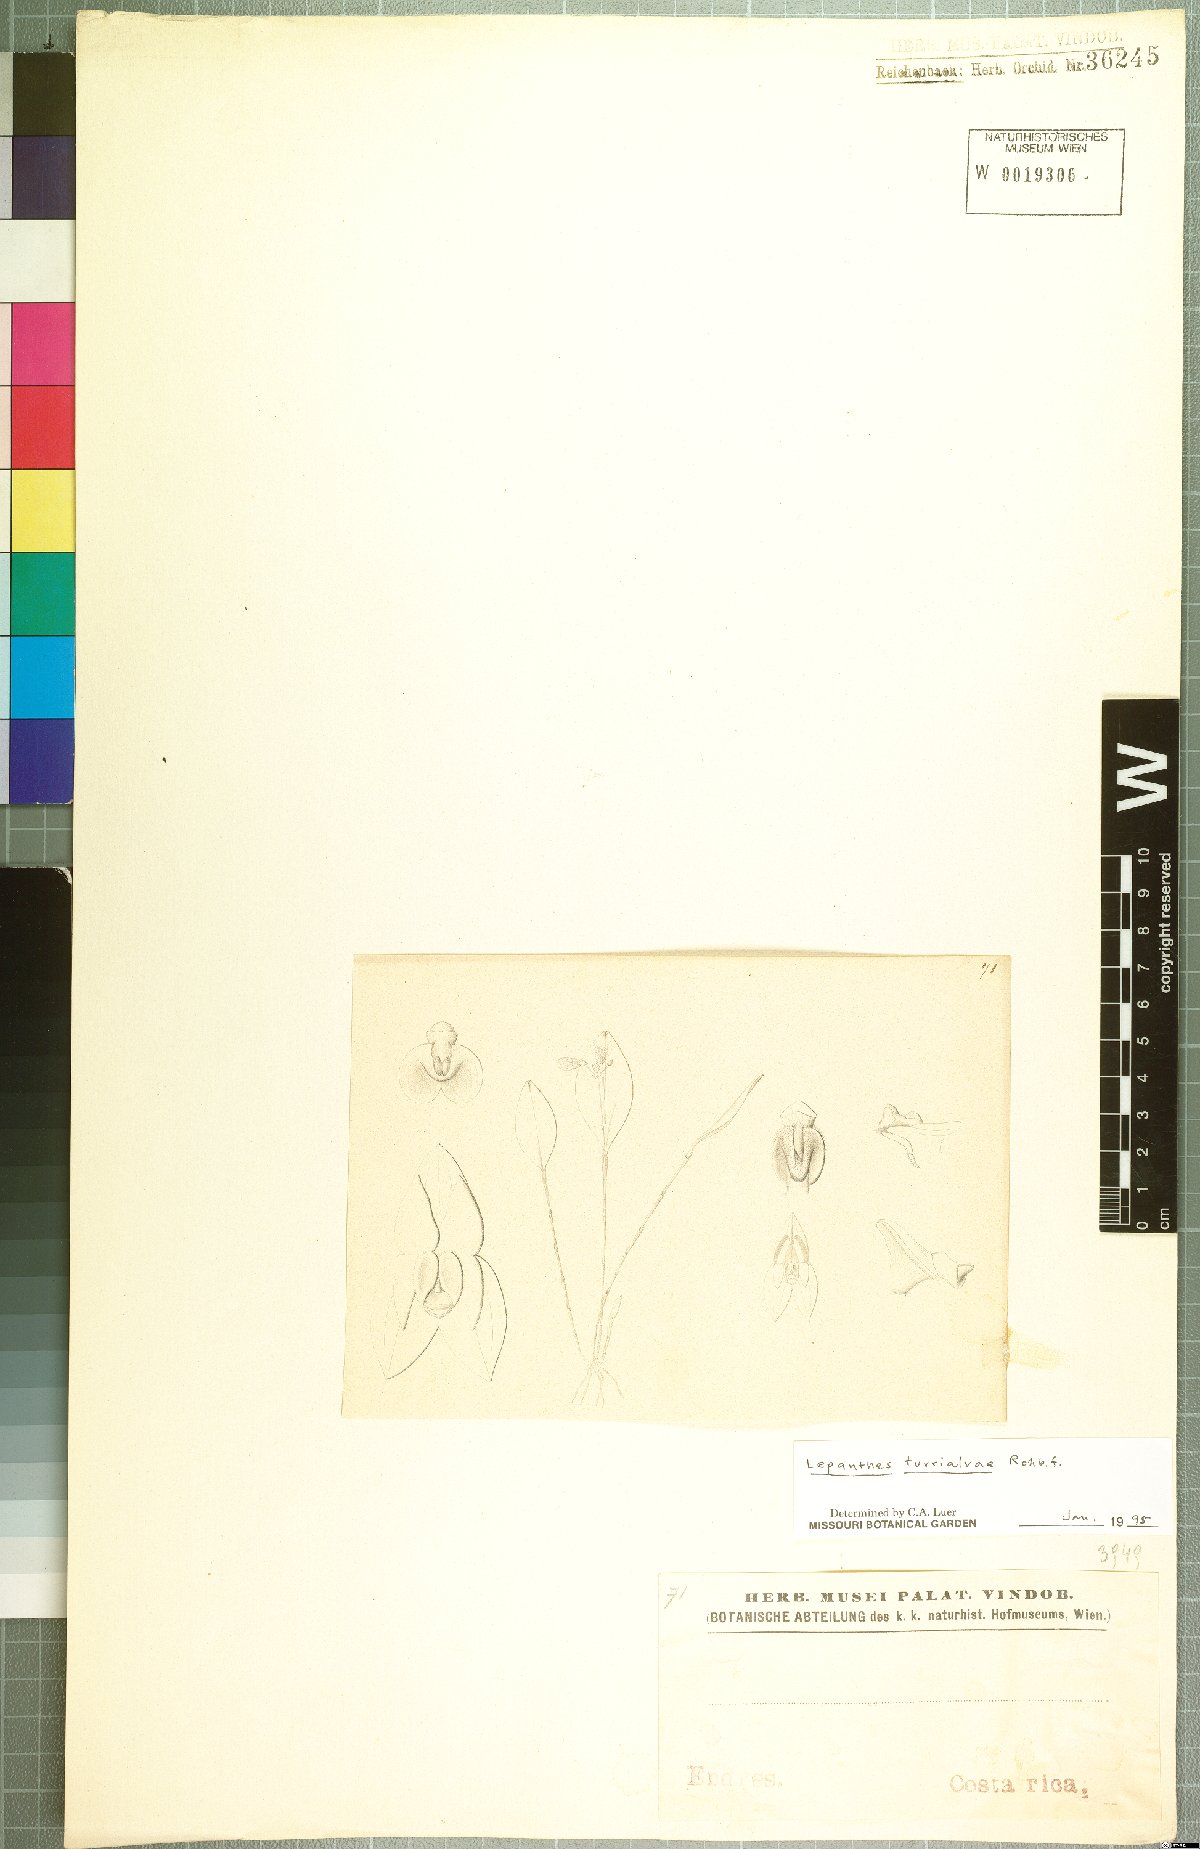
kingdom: Plantae
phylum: Tracheophyta
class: Liliopsida
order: Asparagales
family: Orchidaceae
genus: Lepanthes
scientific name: Lepanthes turialvae
